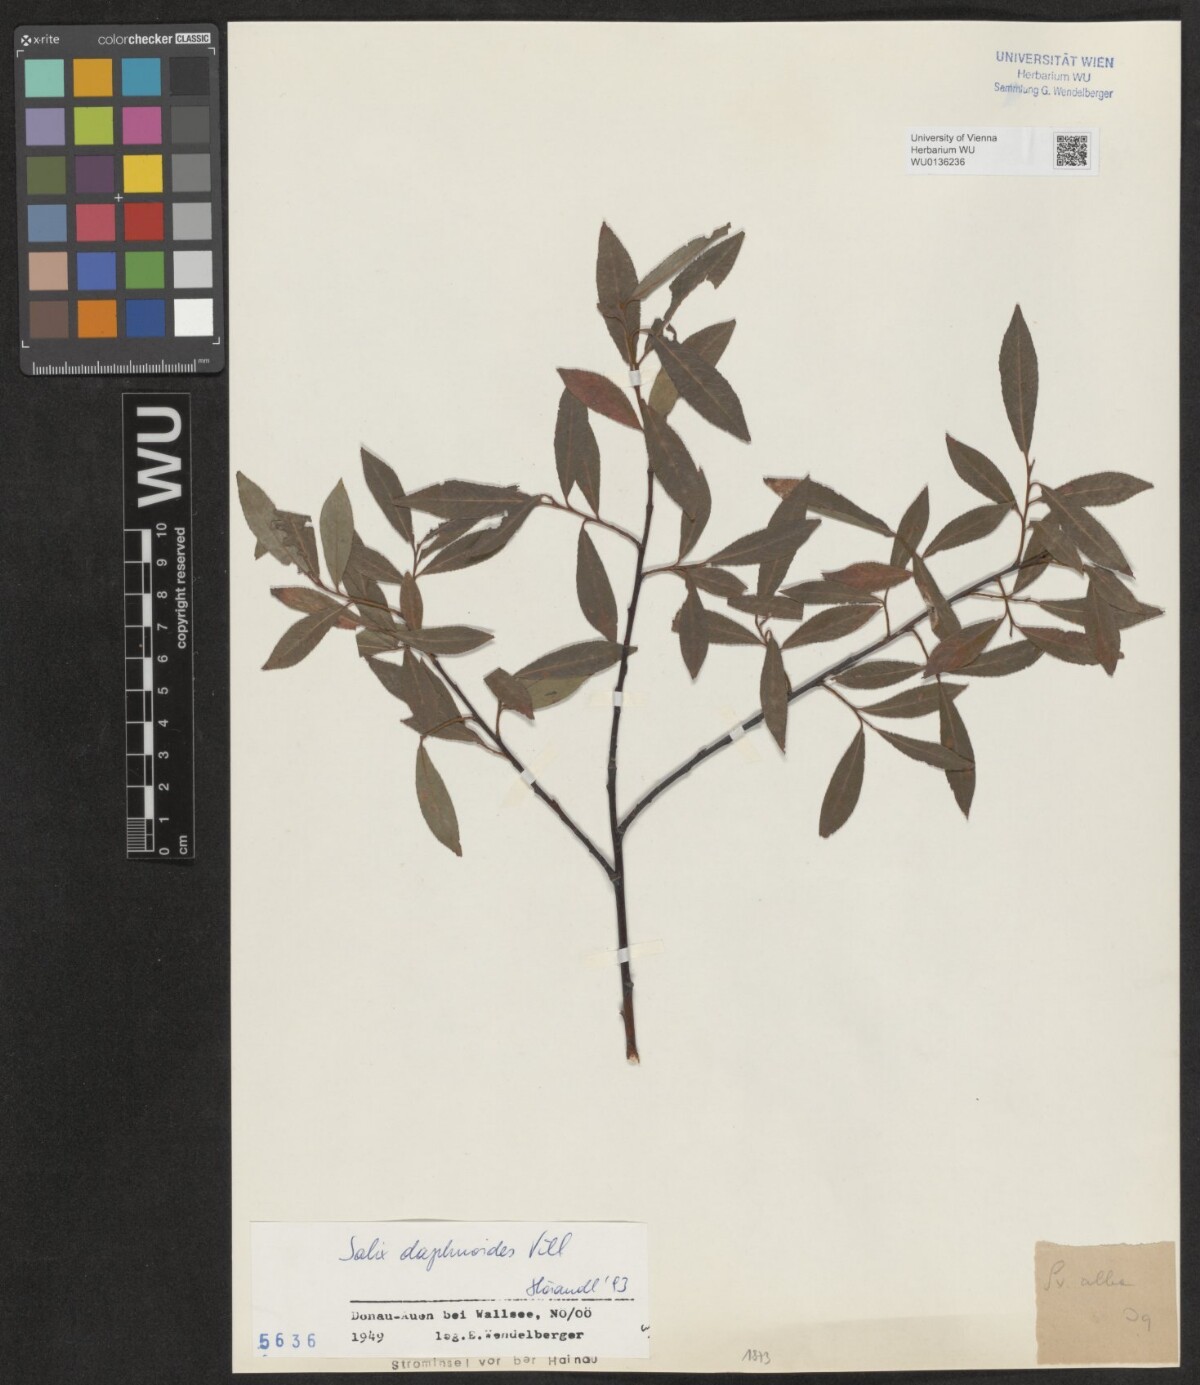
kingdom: Plantae
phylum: Tracheophyta
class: Magnoliopsida
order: Malpighiales
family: Salicaceae
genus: Salix
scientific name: Salix daphnoides
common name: European violet-willow
